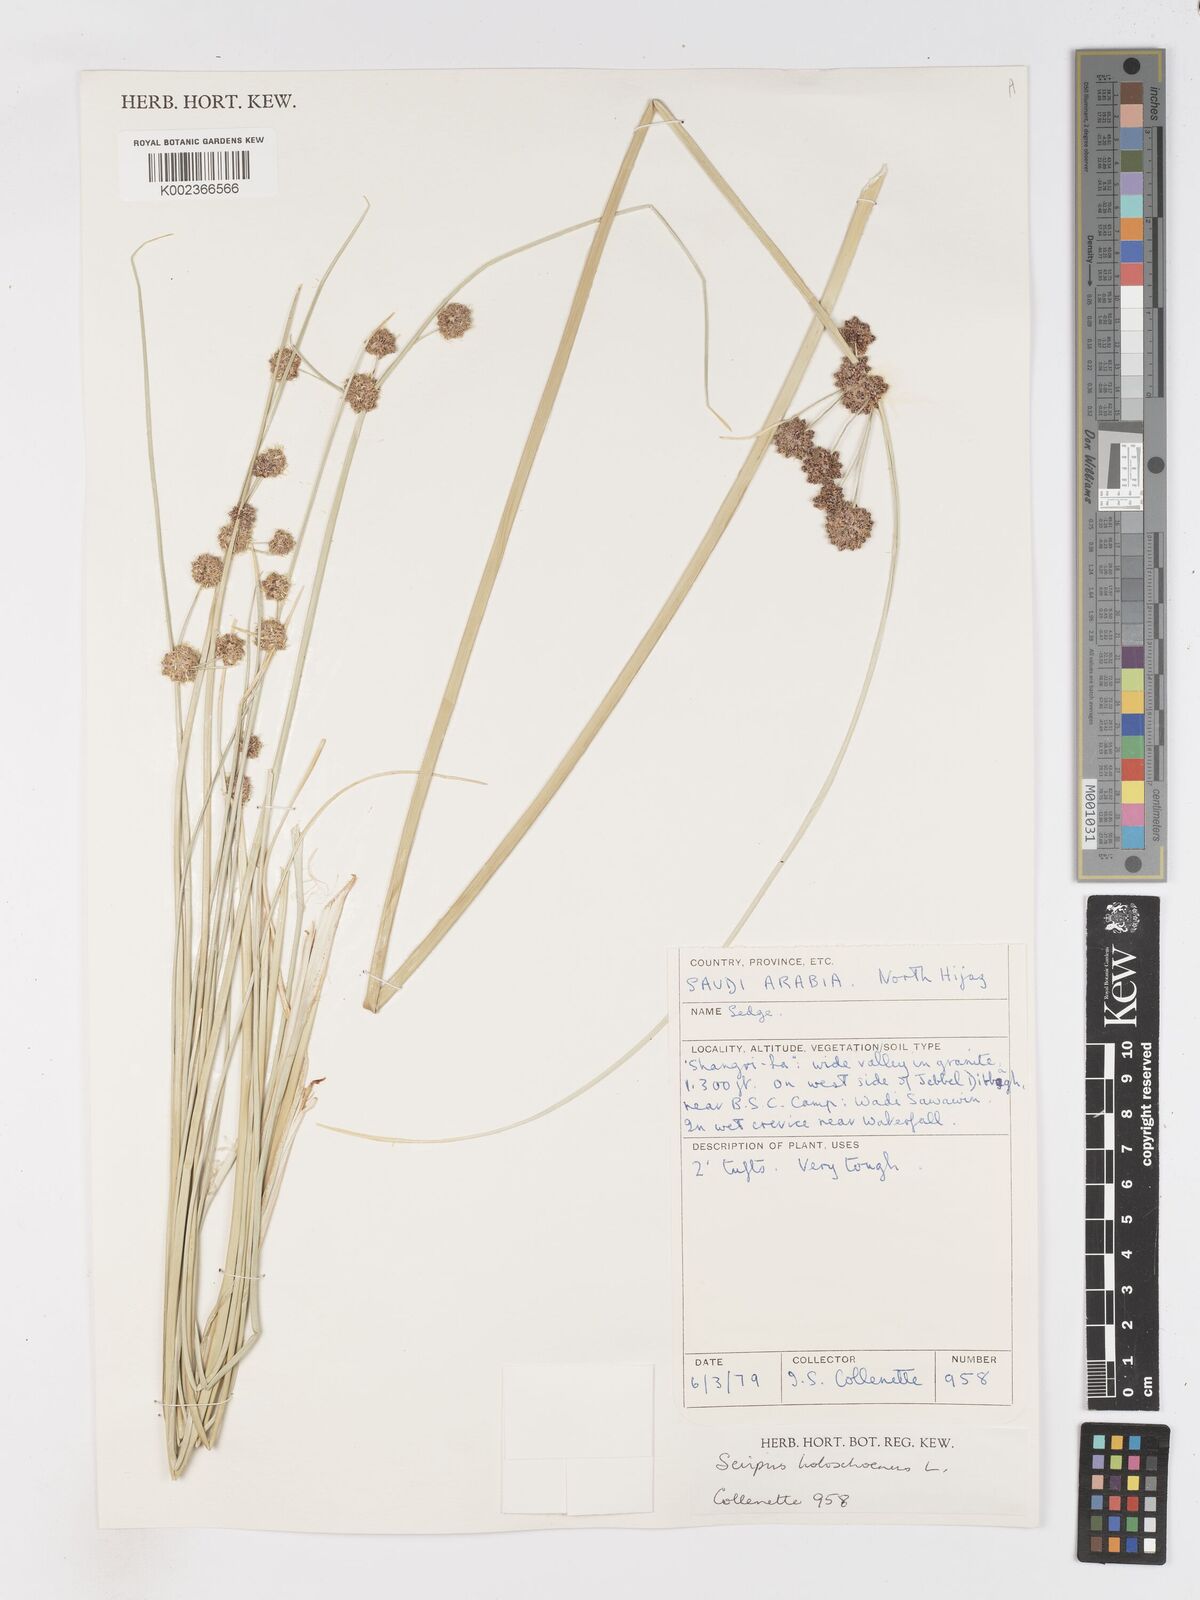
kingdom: Plantae
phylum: Tracheophyta
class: Liliopsida
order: Poales
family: Cyperaceae
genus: Scirpoides
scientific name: Scirpoides holoschoenus
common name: Round-headed club-rush
